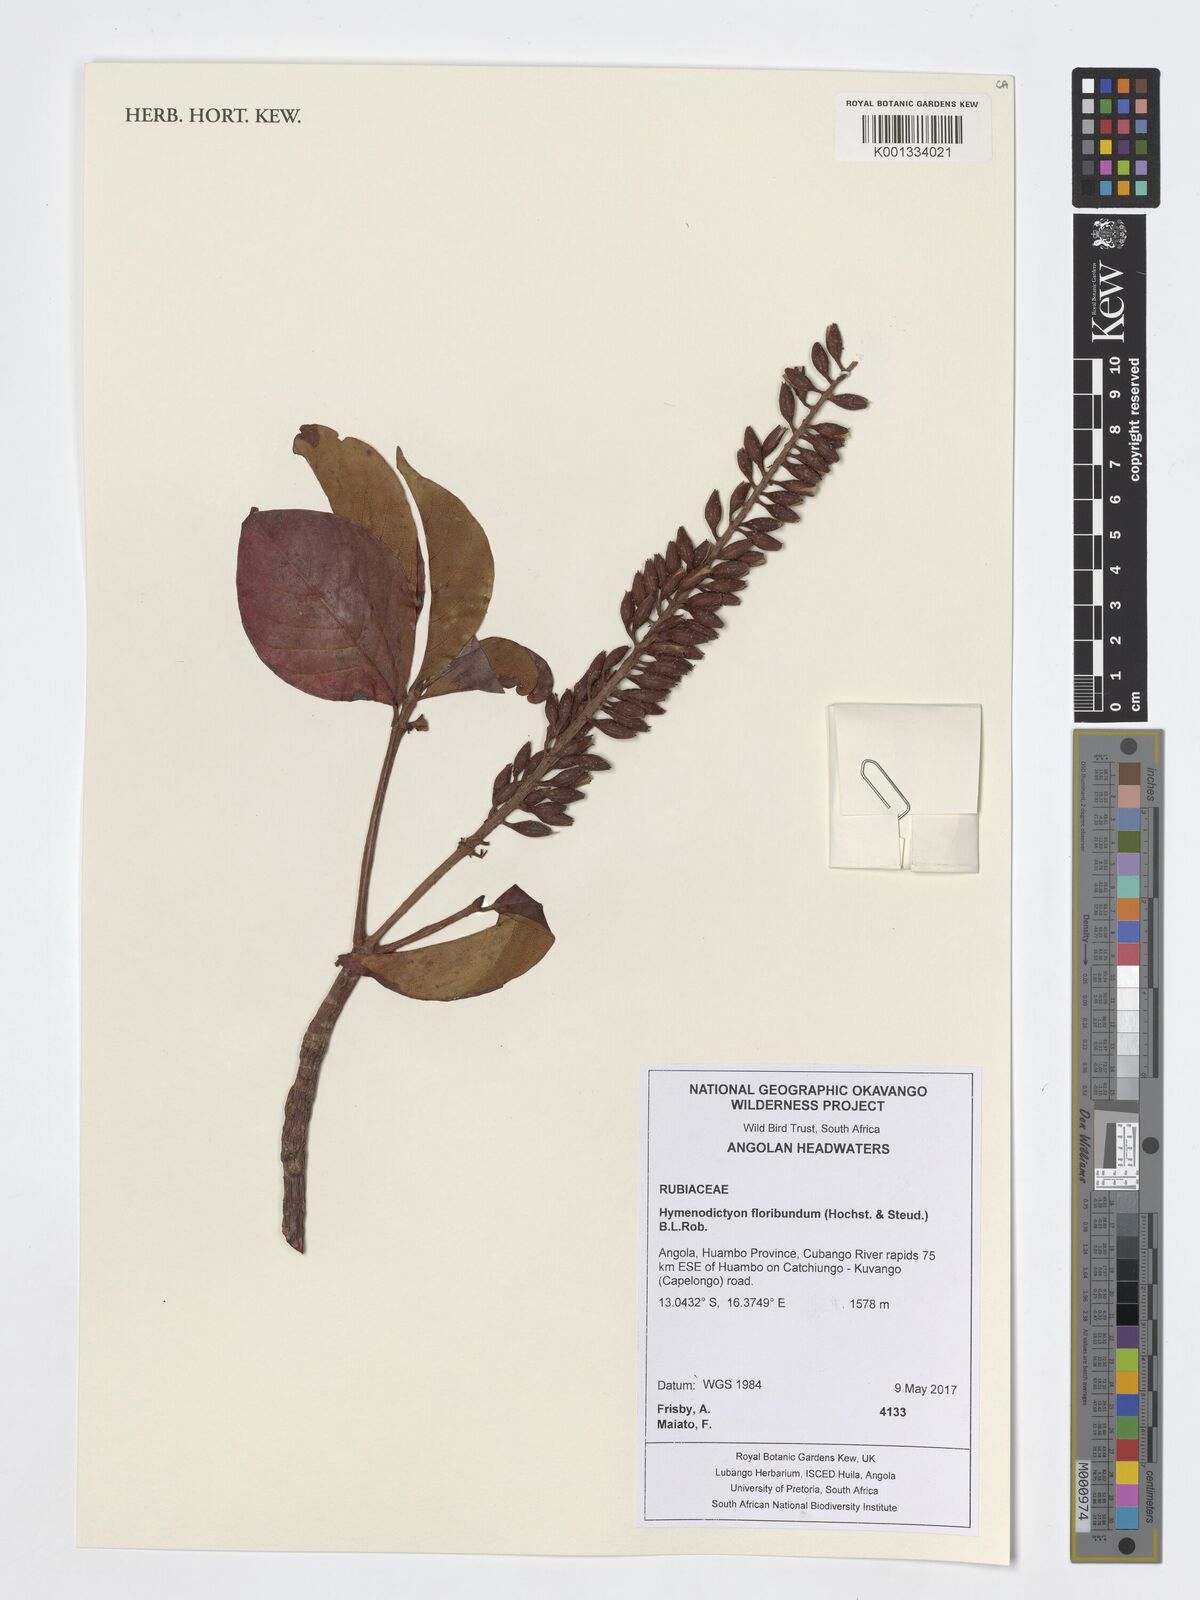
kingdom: Plantae
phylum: Tracheophyta
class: Magnoliopsida
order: Gentianales
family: Rubiaceae
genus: Hymenodictyon
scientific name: Hymenodictyon floribundum
